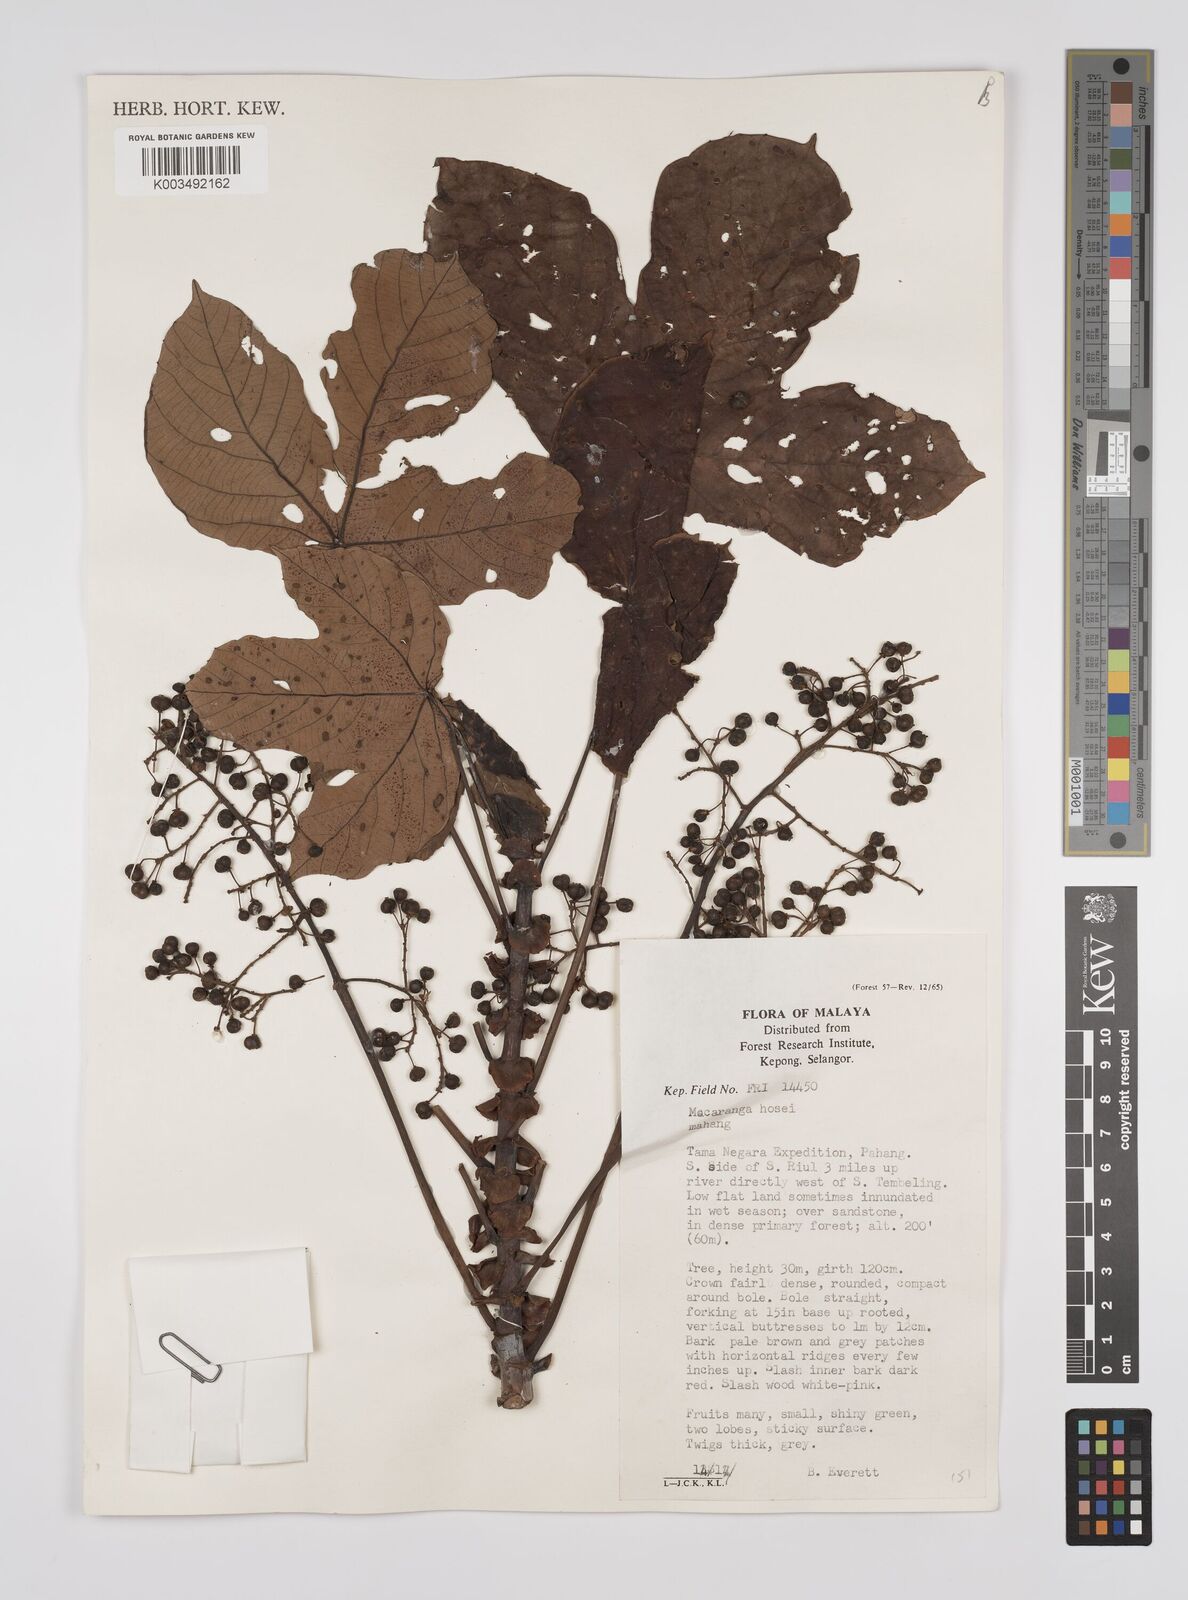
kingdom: Plantae
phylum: Tracheophyta
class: Magnoliopsida
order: Malpighiales
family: Euphorbiaceae
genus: Macaranga
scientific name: Macaranga hosei
